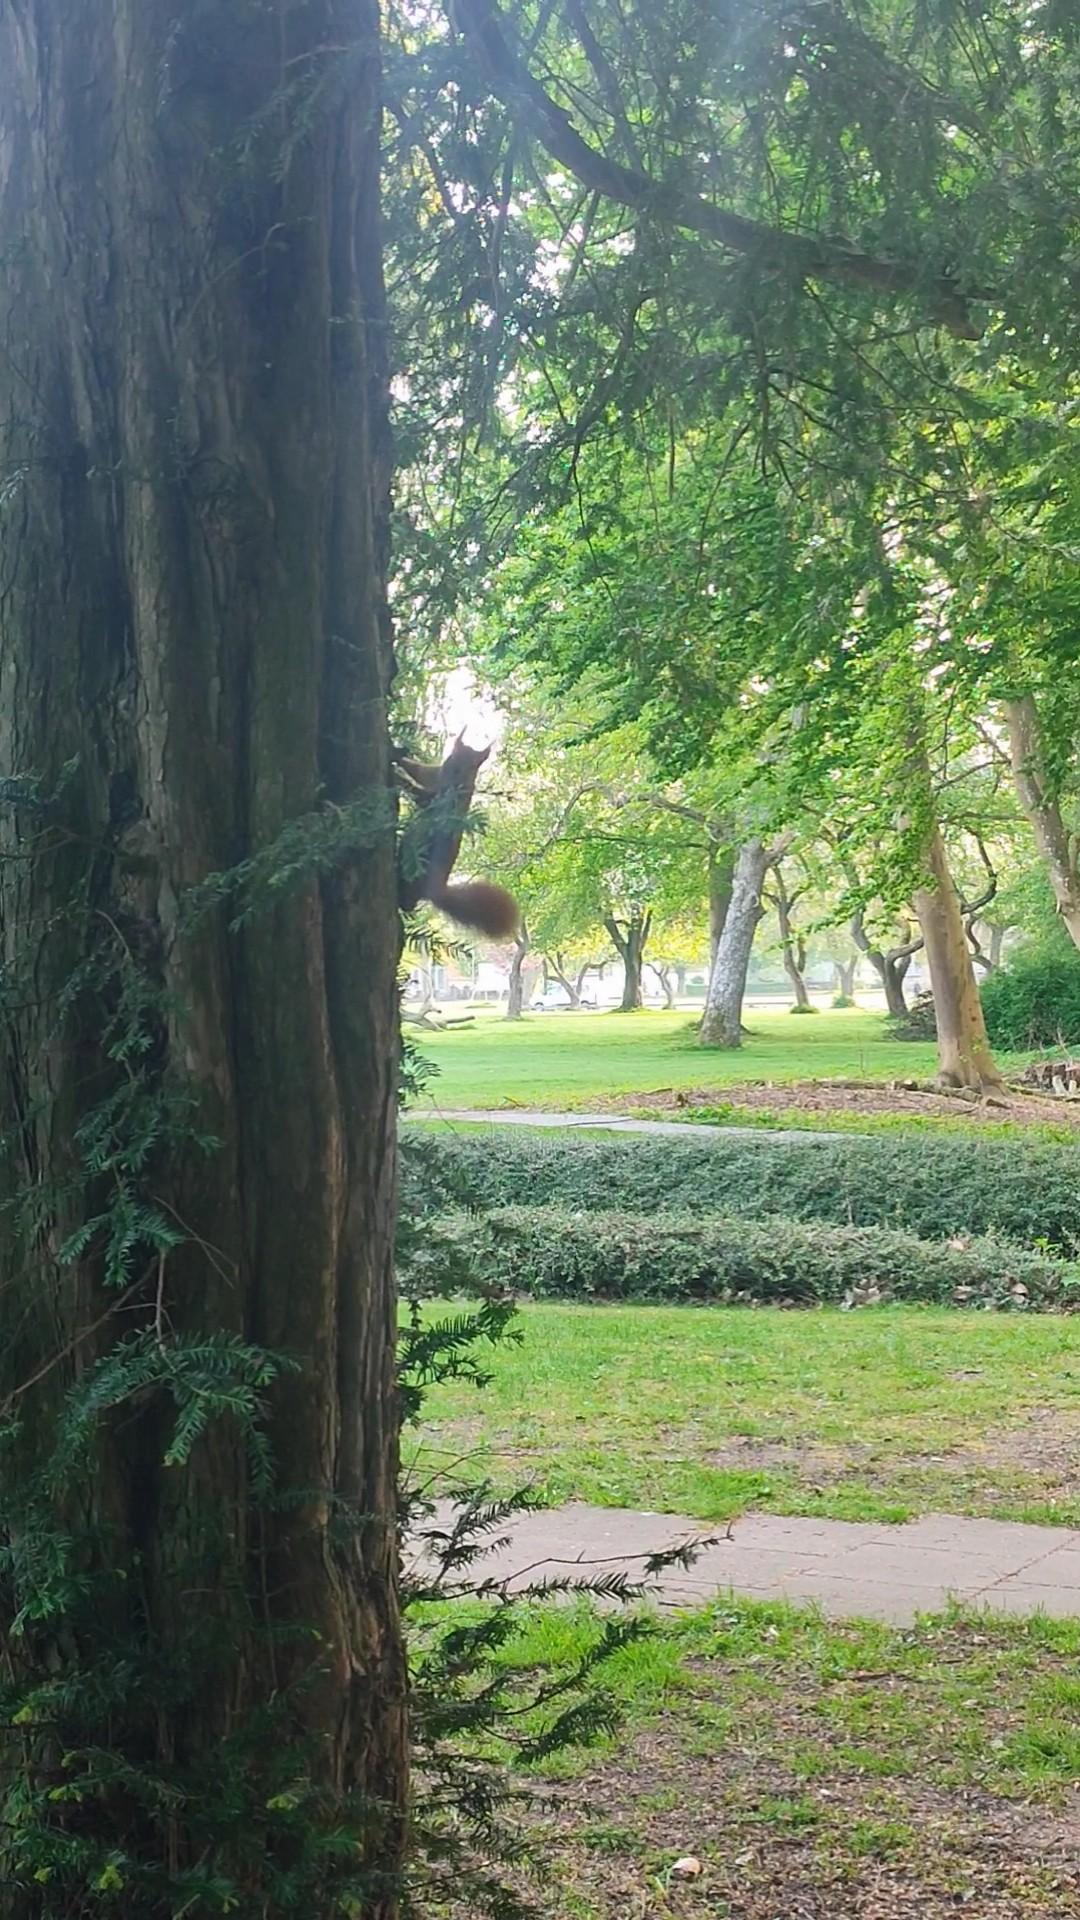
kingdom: Animalia
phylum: Chordata
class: Mammalia
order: Rodentia
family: Sciuridae
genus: Sciurus
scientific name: Sciurus vulgaris
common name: Egern
